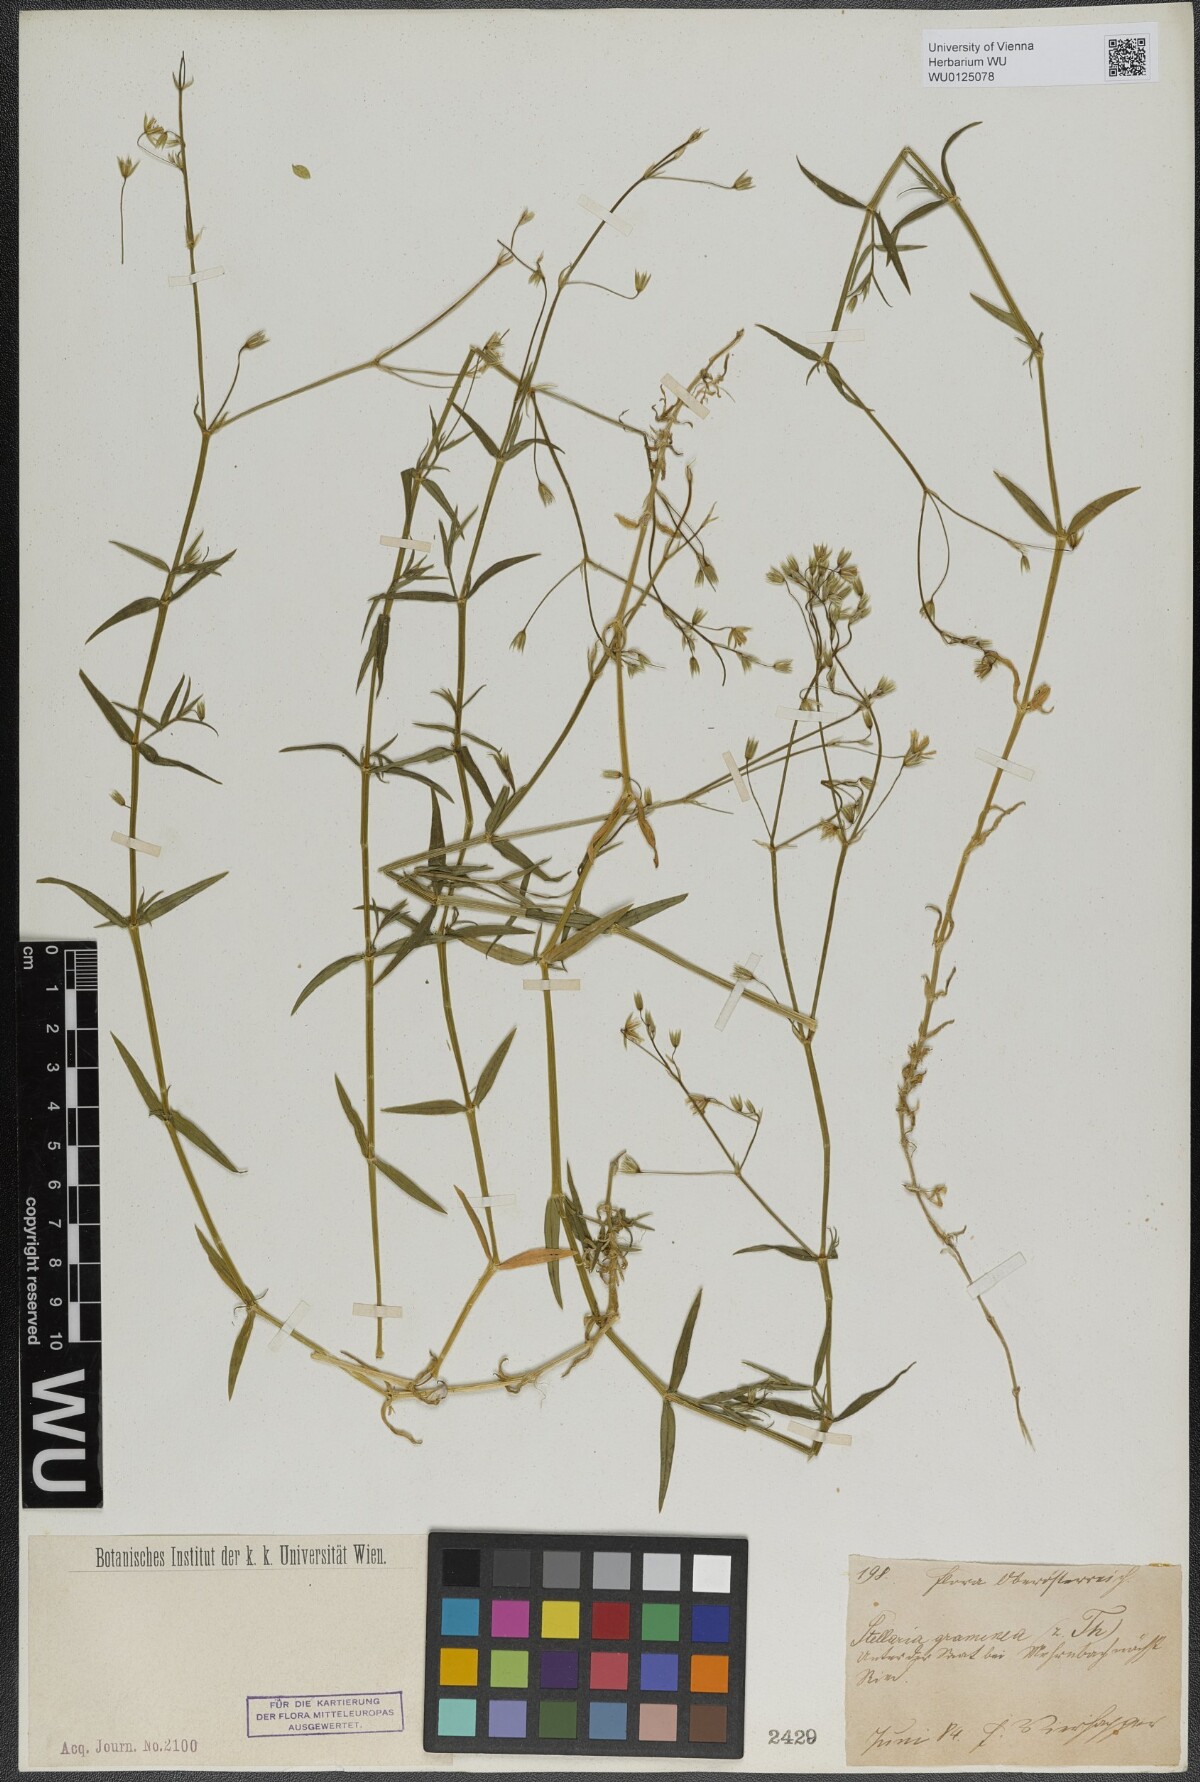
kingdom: Plantae
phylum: Tracheophyta
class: Magnoliopsida
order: Caryophyllales
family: Caryophyllaceae
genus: Stellaria
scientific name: Stellaria graminea
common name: Grass-like starwort
